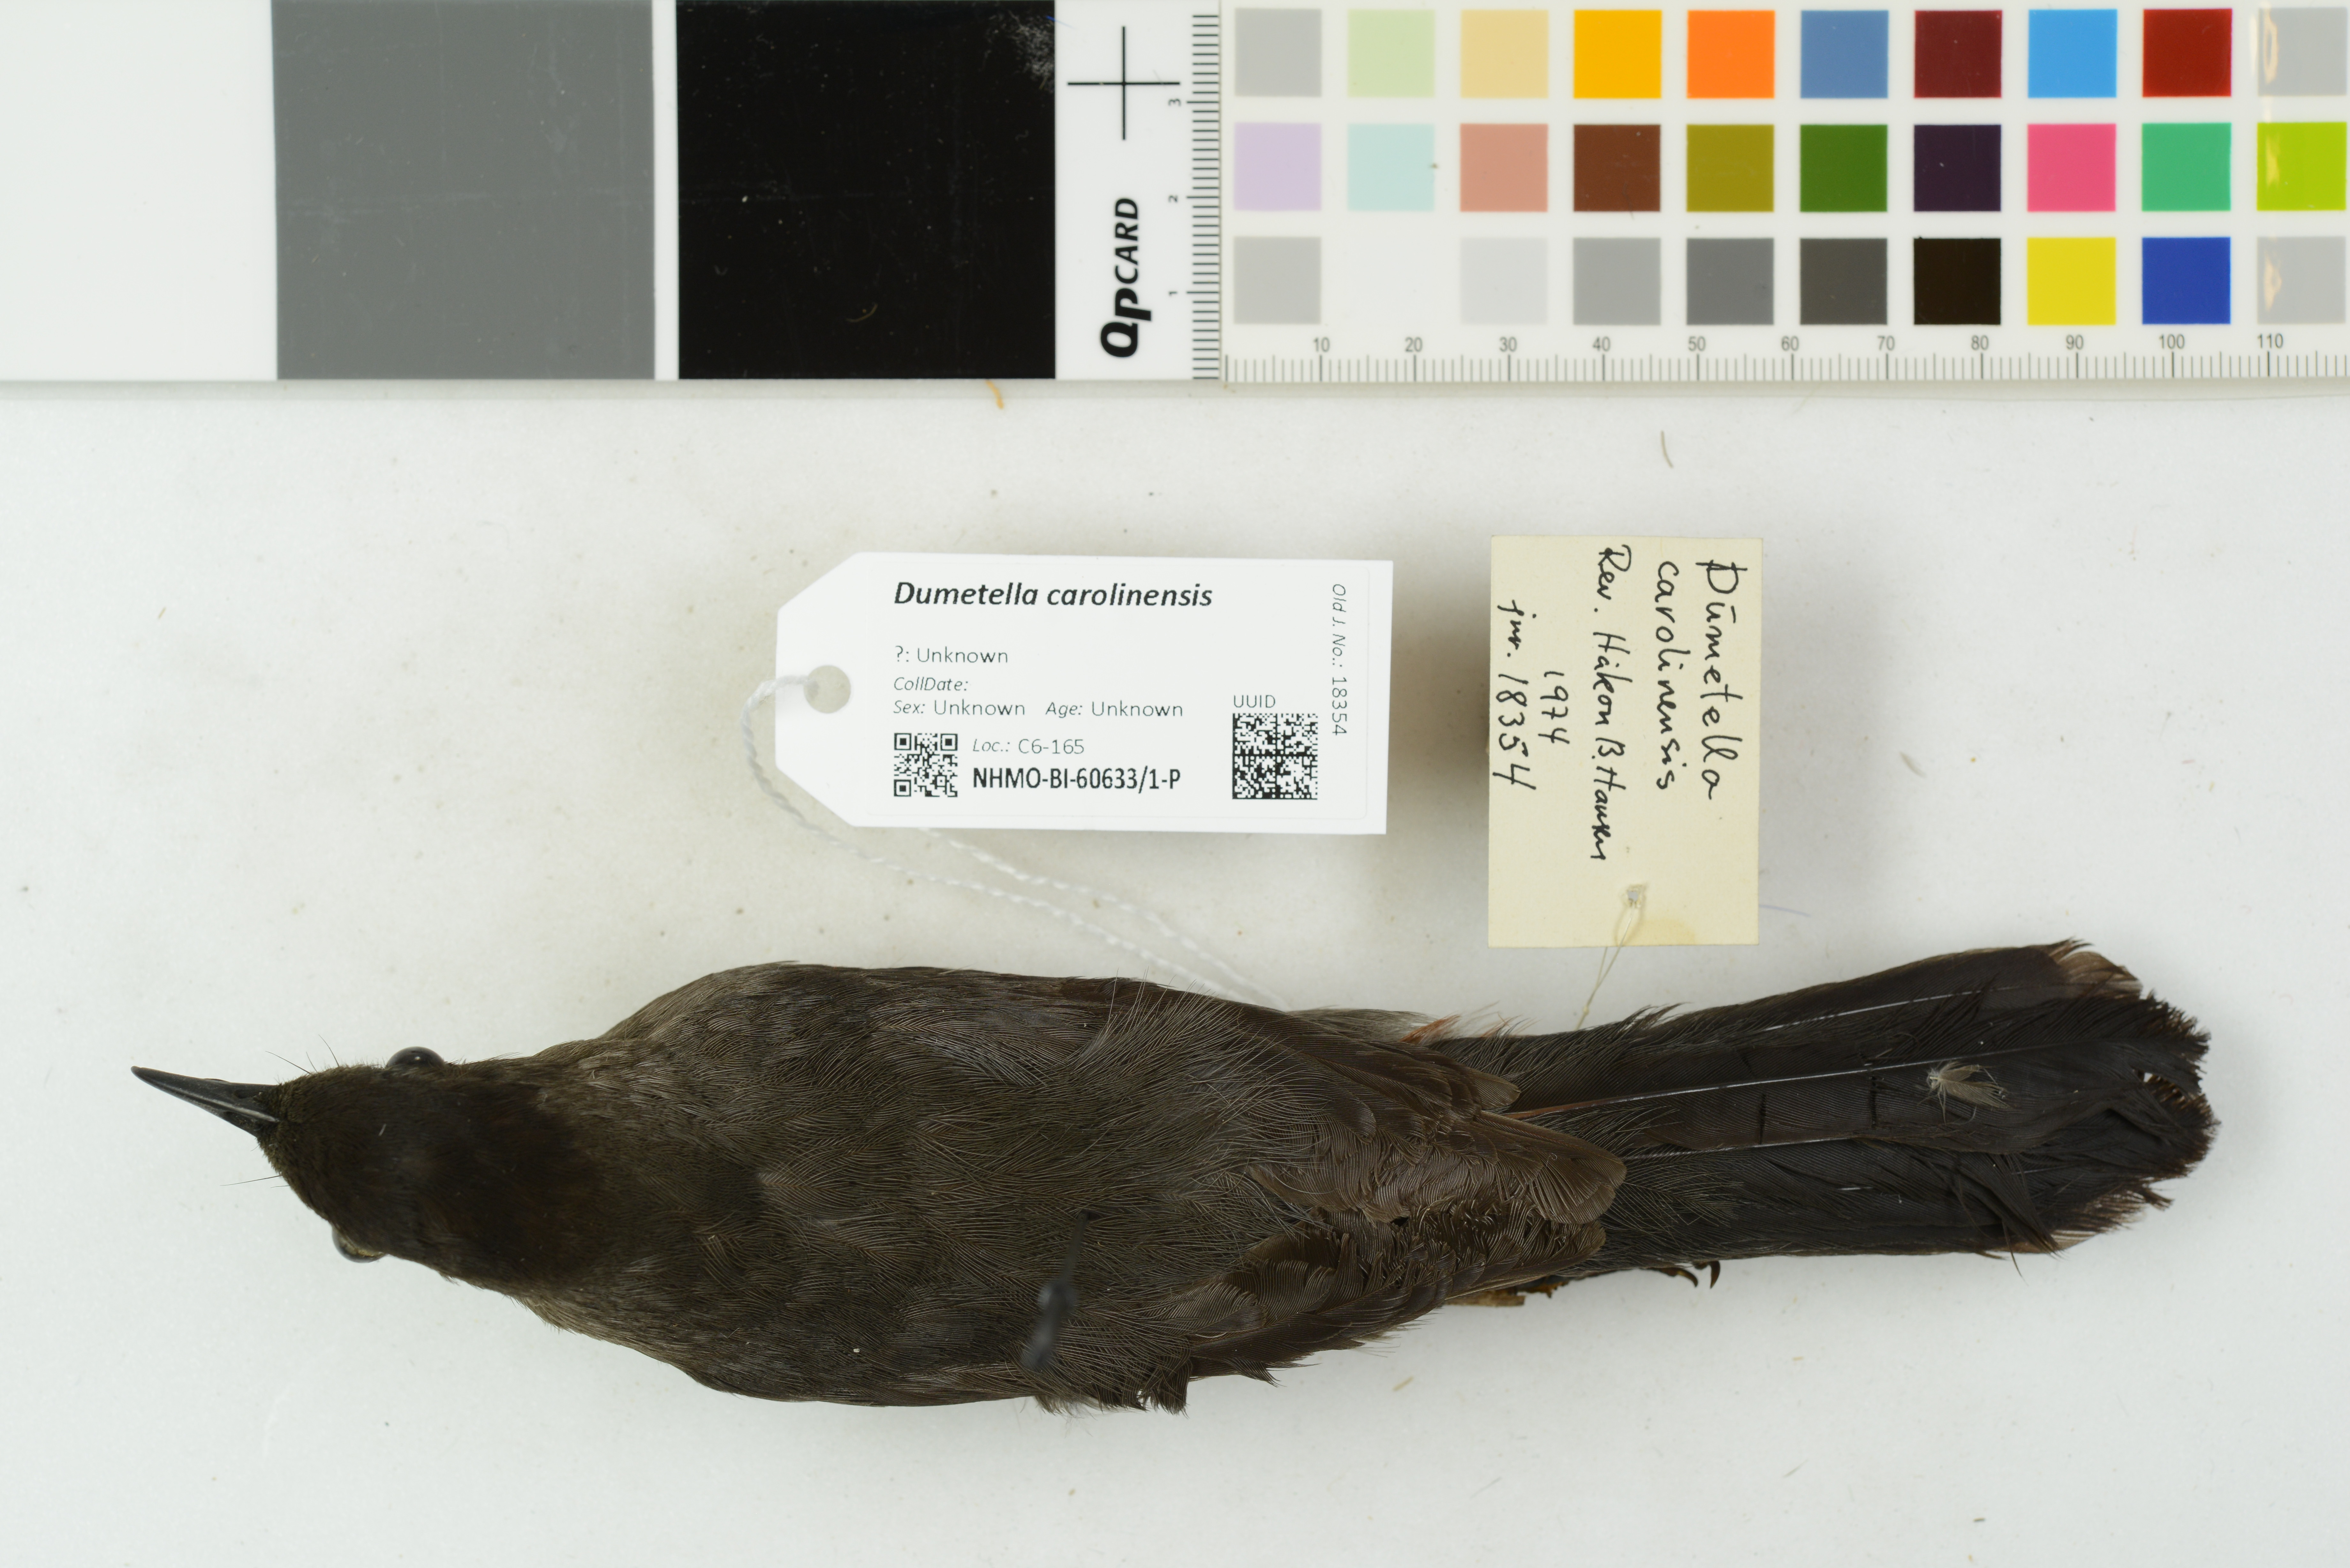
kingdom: Animalia
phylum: Chordata
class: Aves
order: Passeriformes
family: Mimidae
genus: Dumetella
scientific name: Dumetella carolinensis
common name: Gray catbird
